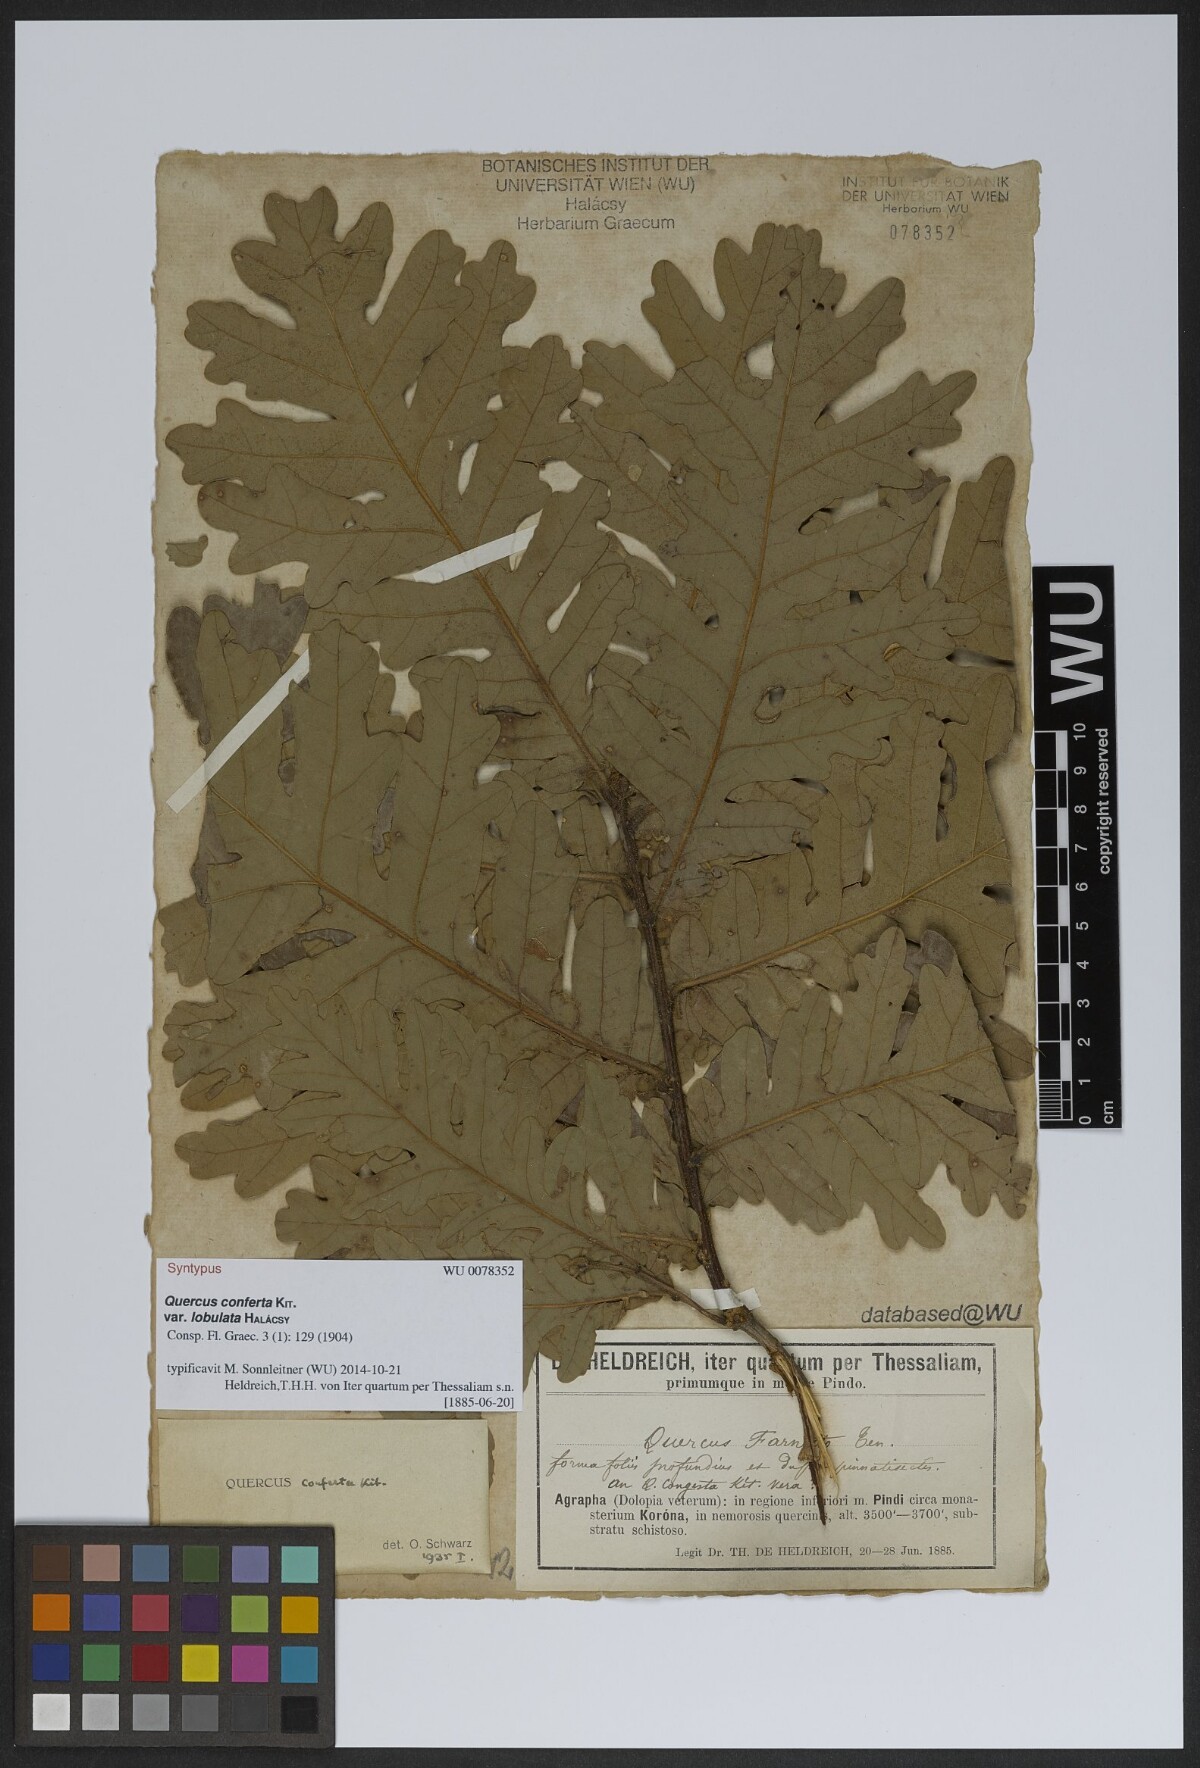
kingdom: Plantae
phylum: Tracheophyta
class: Magnoliopsida
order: Fagales
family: Fagaceae
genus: Quercus
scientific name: Quercus conferta
